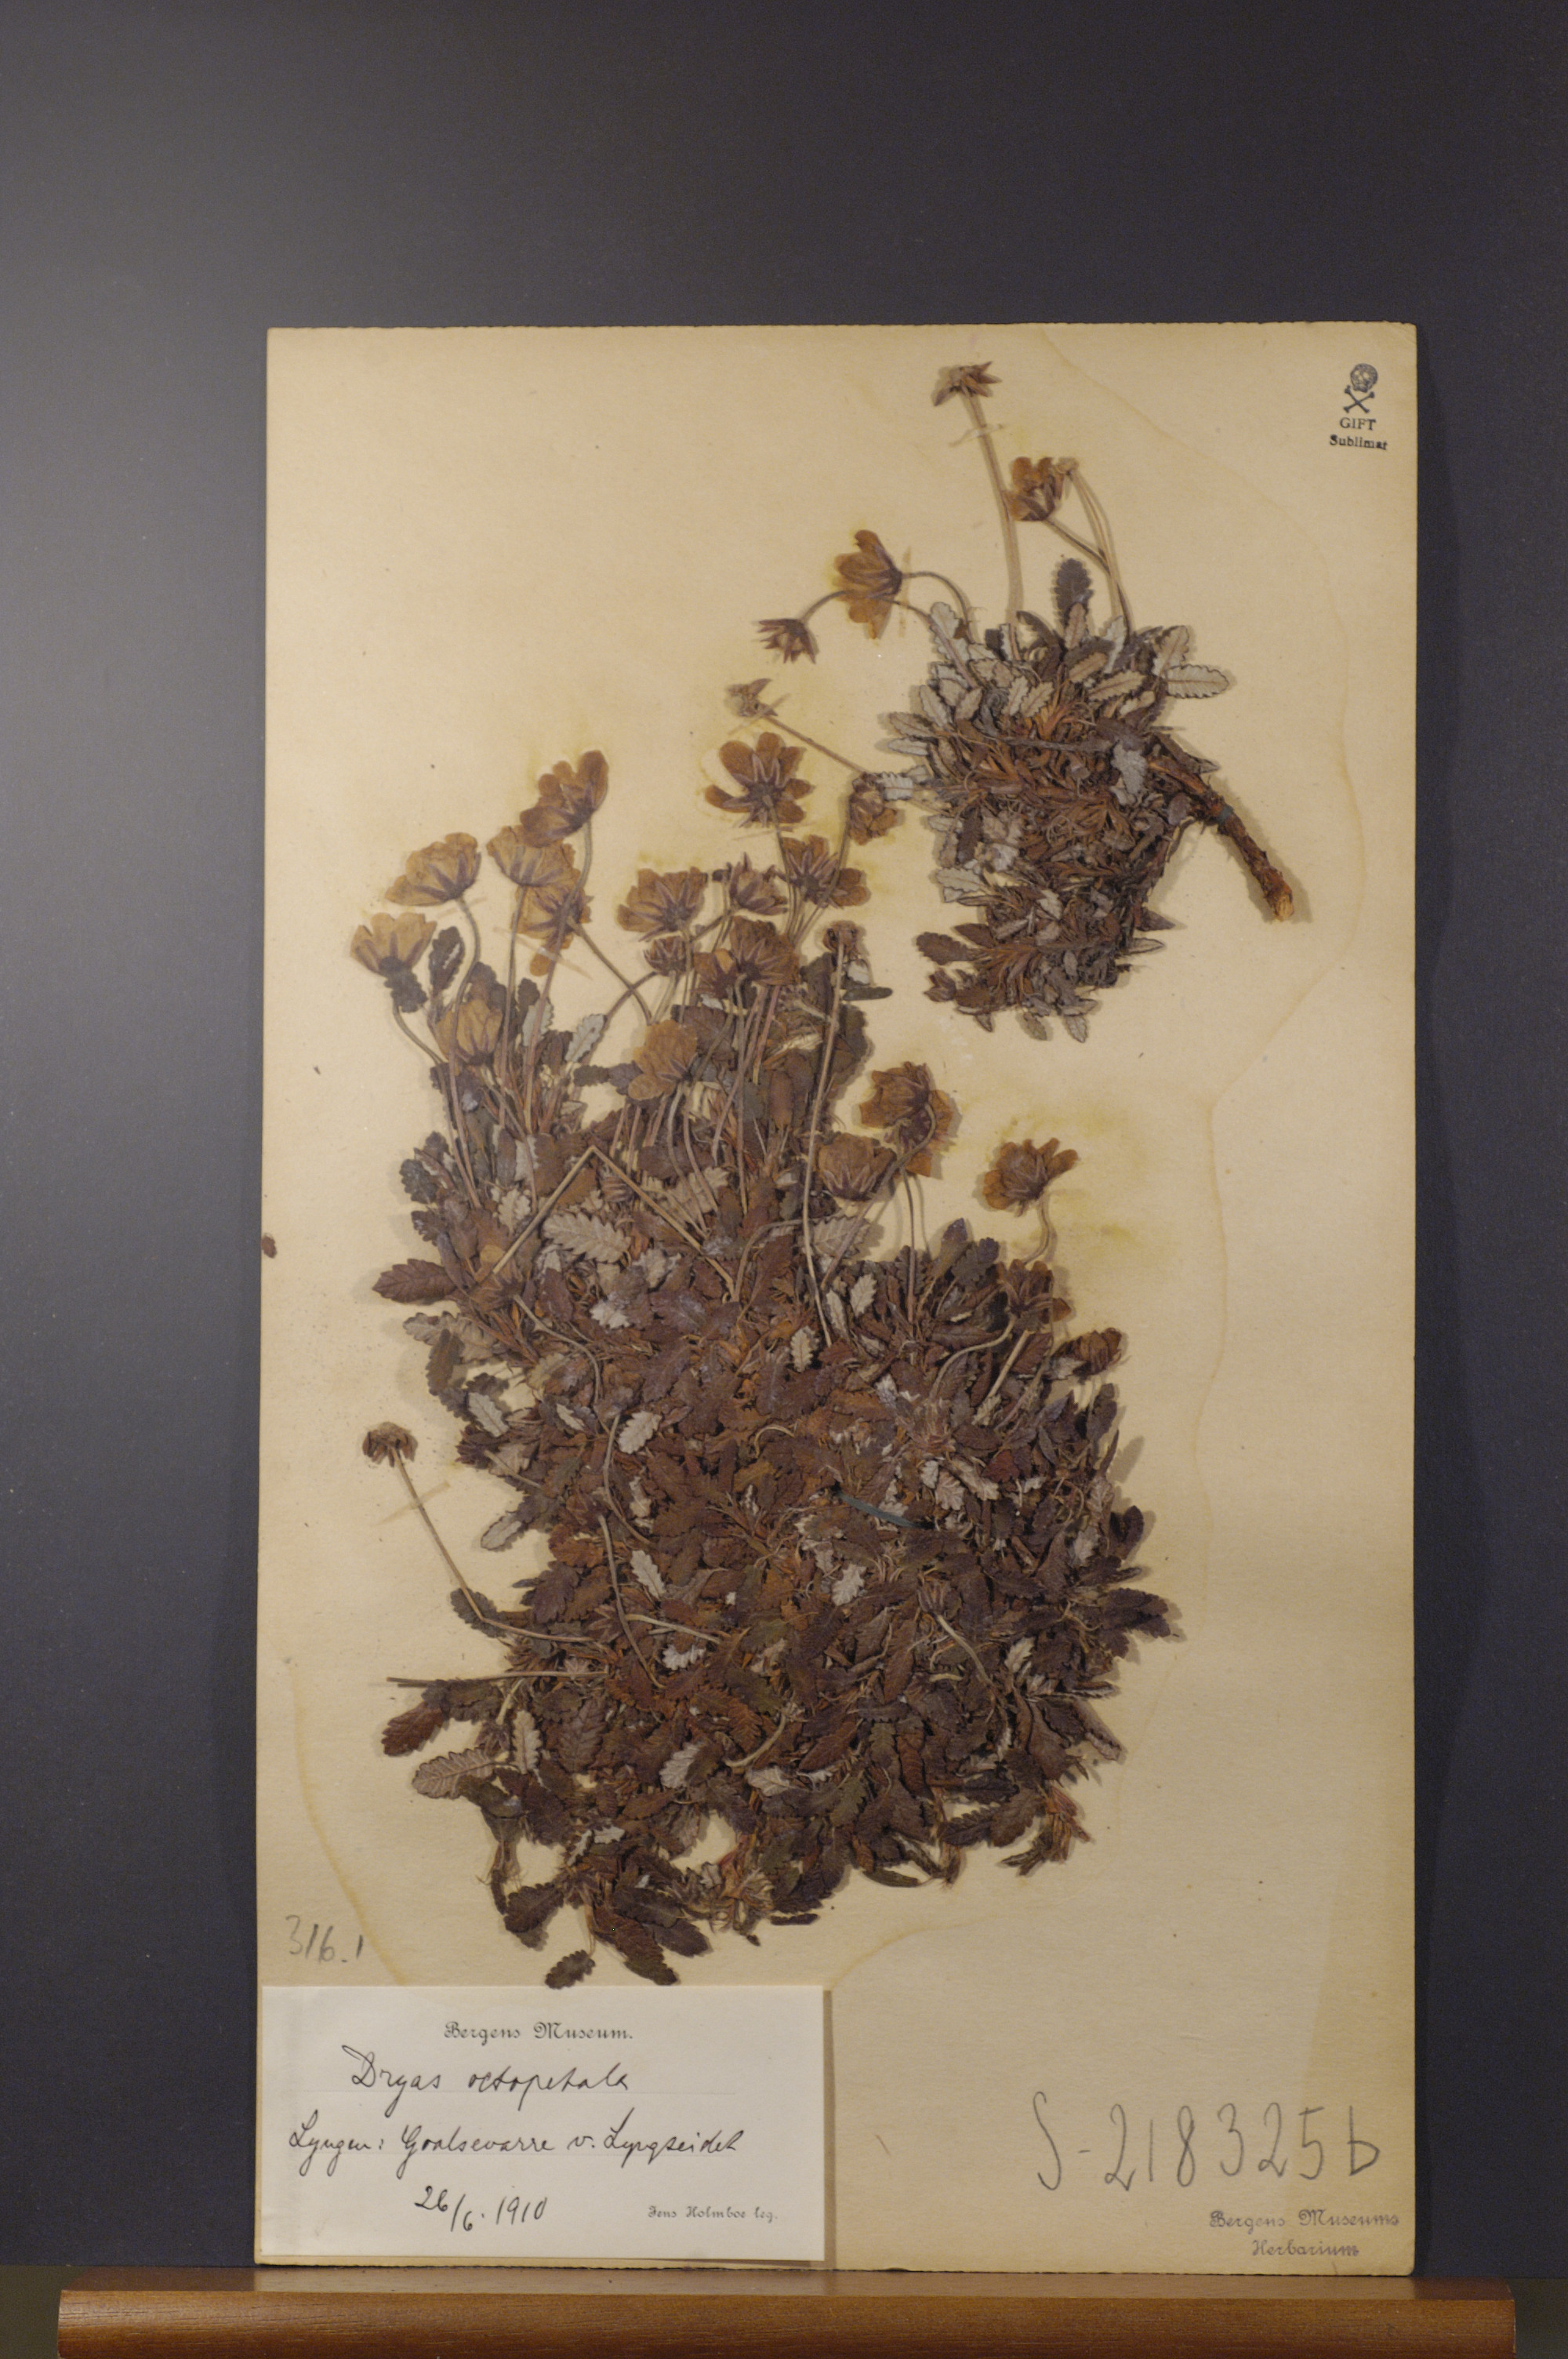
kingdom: Plantae
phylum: Tracheophyta
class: Magnoliopsida
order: Rosales
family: Rosaceae
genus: Dryas
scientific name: Dryas octopetala
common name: Eight-petal mountain-avens
